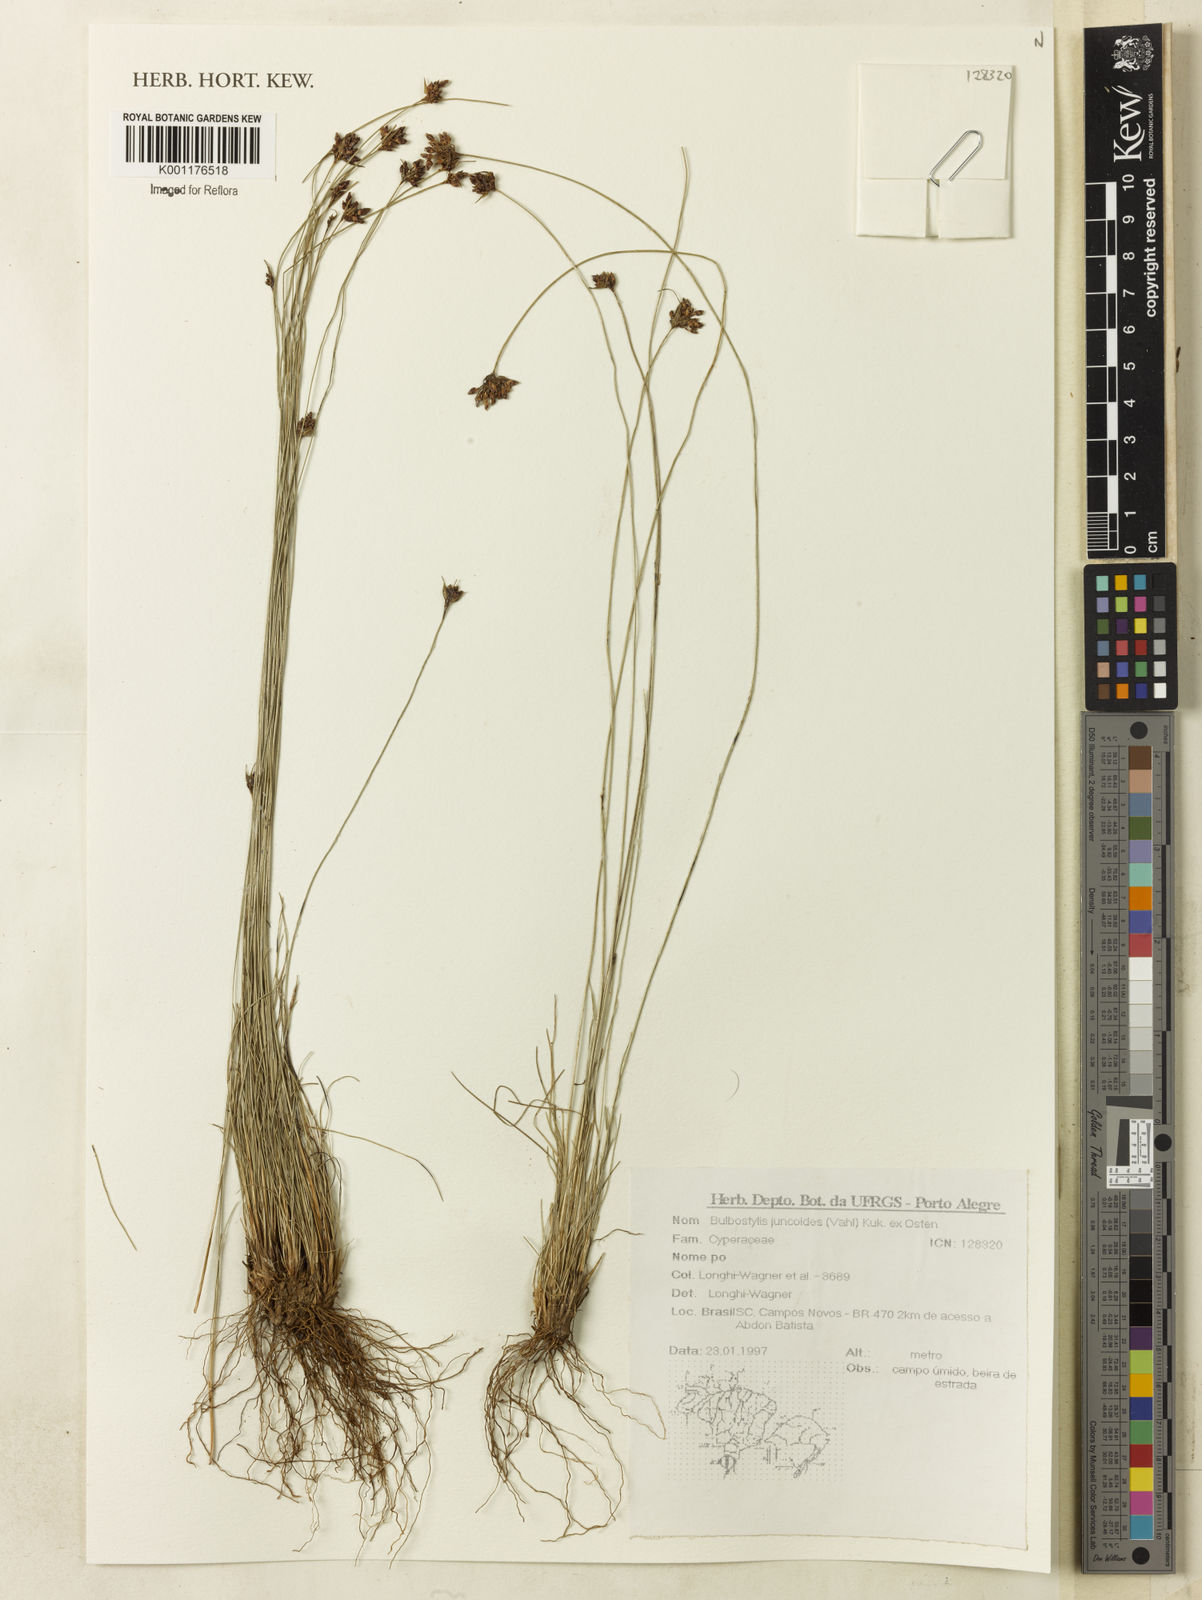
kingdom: Plantae
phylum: Tracheophyta
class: Liliopsida
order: Poales
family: Cyperaceae
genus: Bulbostylis
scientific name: Bulbostylis juncoides
